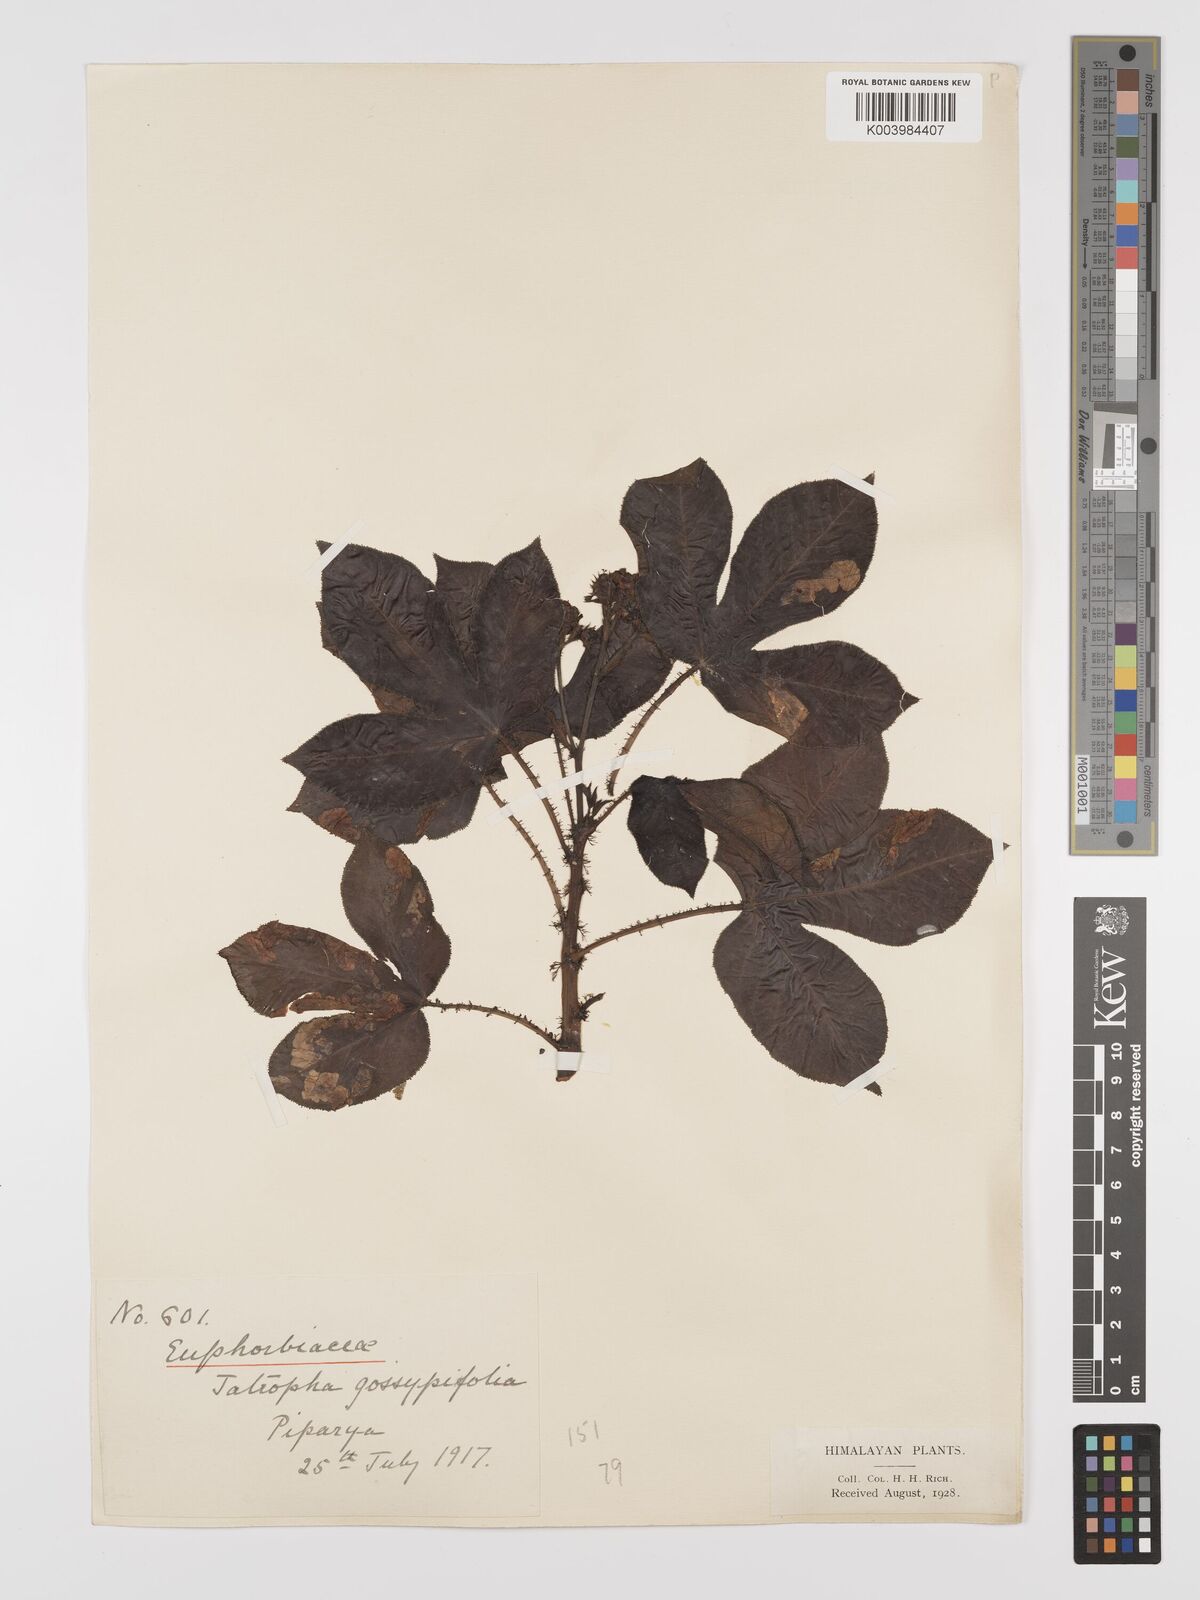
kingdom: Plantae
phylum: Tracheophyta
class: Magnoliopsida
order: Malpighiales
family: Euphorbiaceae
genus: Jatropha
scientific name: Jatropha gossypiifolia
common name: Bellyache bush
